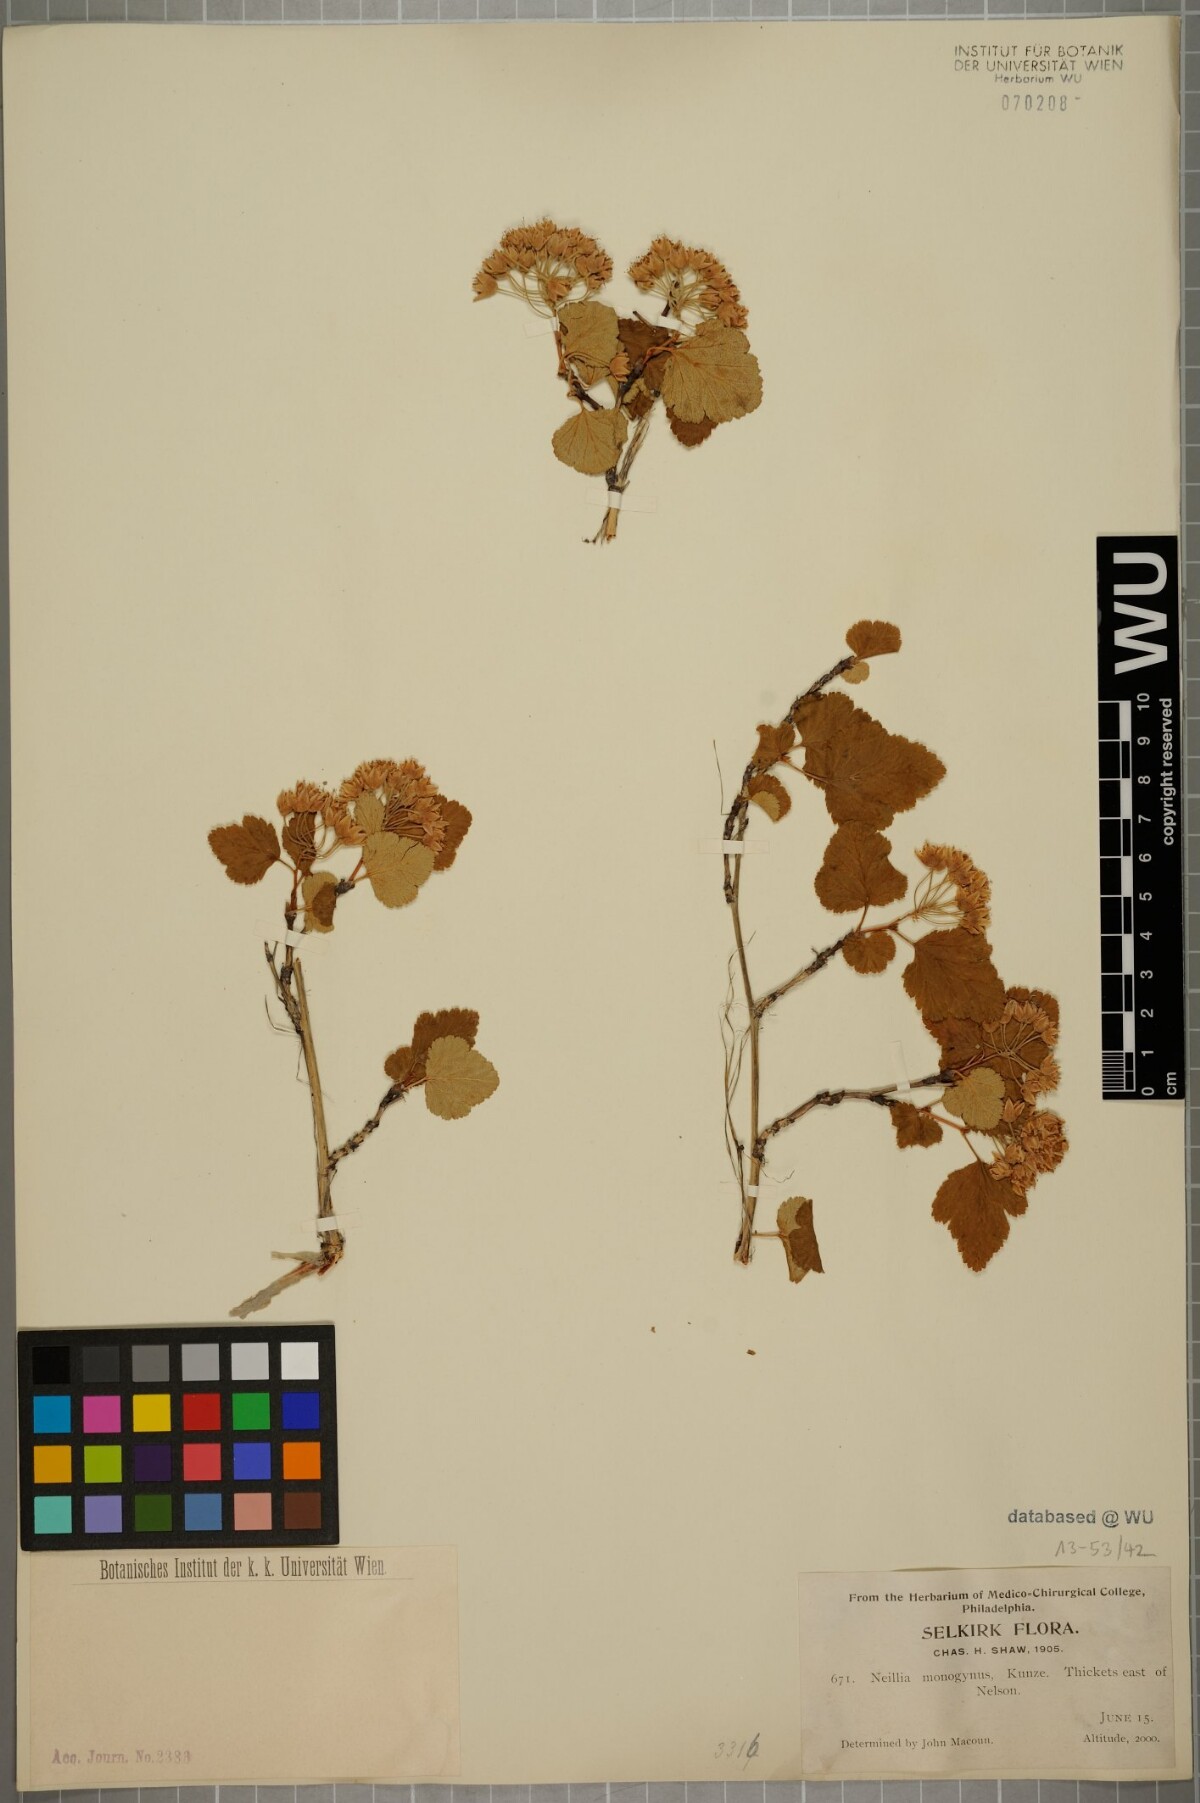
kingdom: Plantae
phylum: Tracheophyta
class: Magnoliopsida
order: Rosales
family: Rosaceae
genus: Physocarpus
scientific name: Physocarpus monogynus
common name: Mountain ninebark
